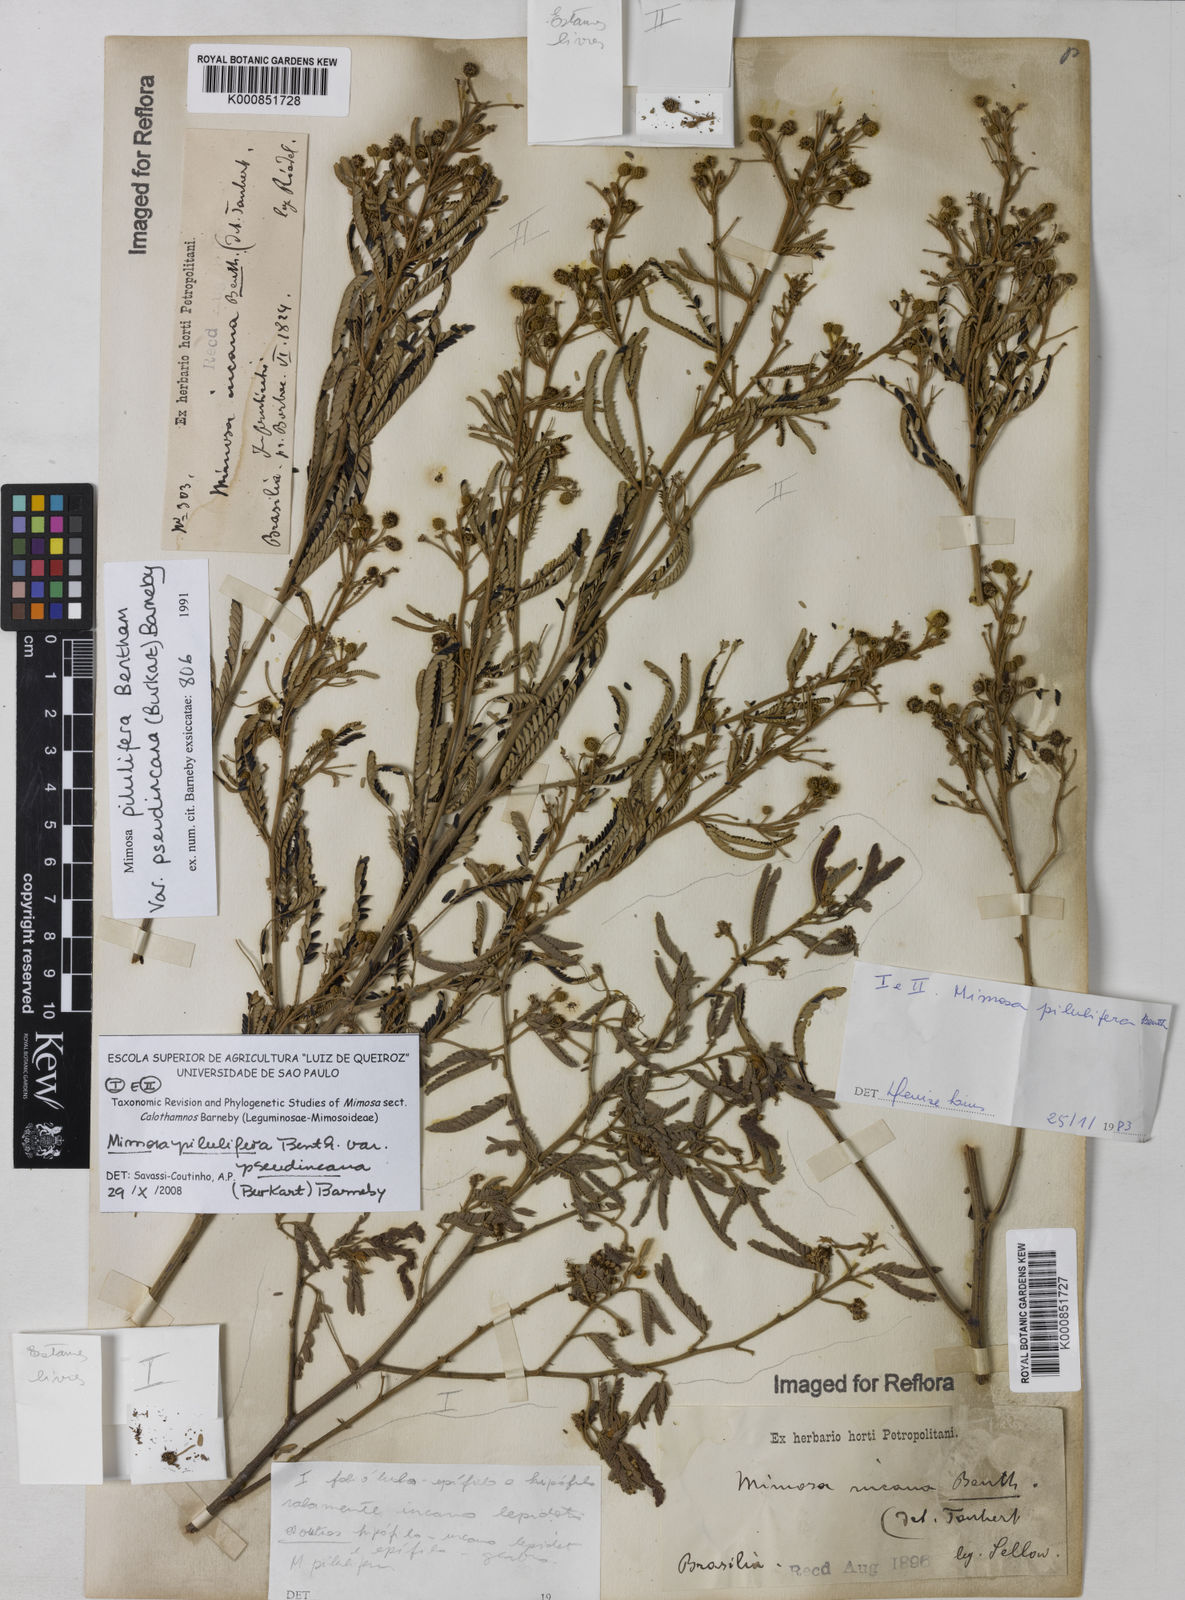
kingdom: Plantae
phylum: Tracheophyta
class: Magnoliopsida
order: Fabales
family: Fabaceae
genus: Mimosa
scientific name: Mimosa pilulifera
